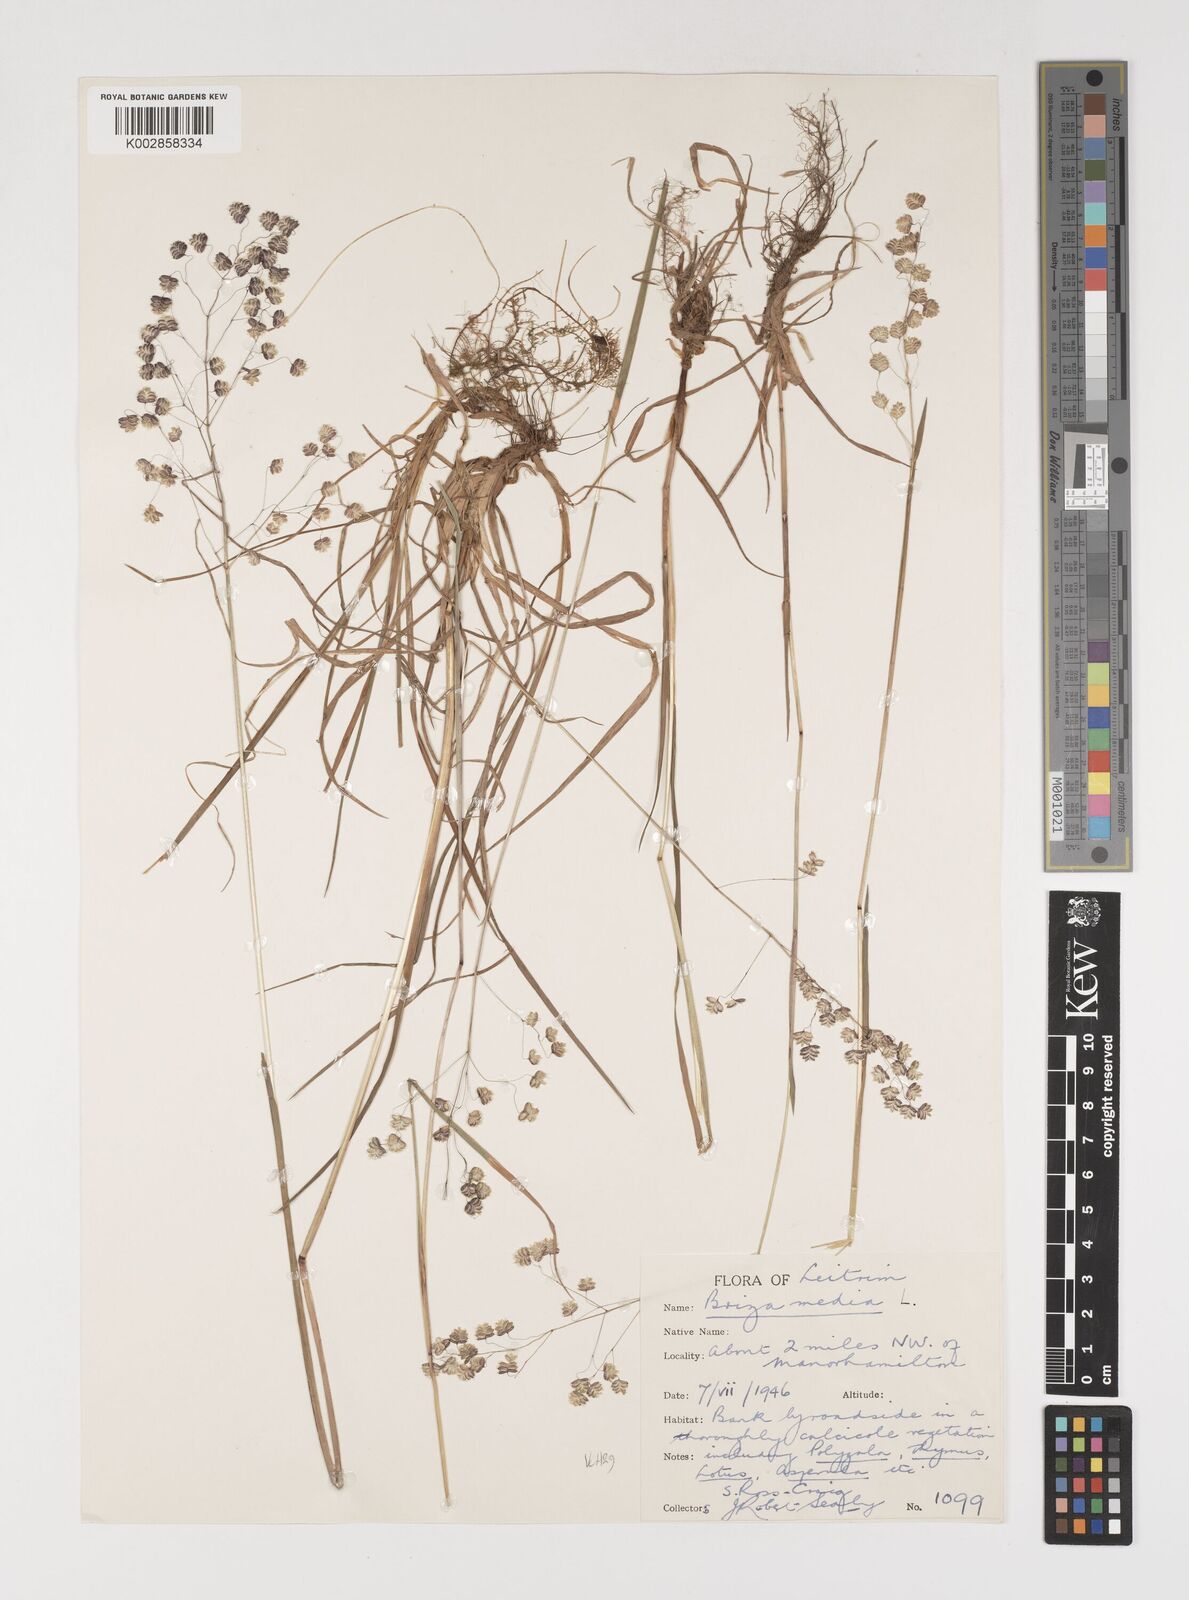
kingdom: Plantae
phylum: Tracheophyta
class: Liliopsida
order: Poales
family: Poaceae
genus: Briza
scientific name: Briza media
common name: Quaking grass
